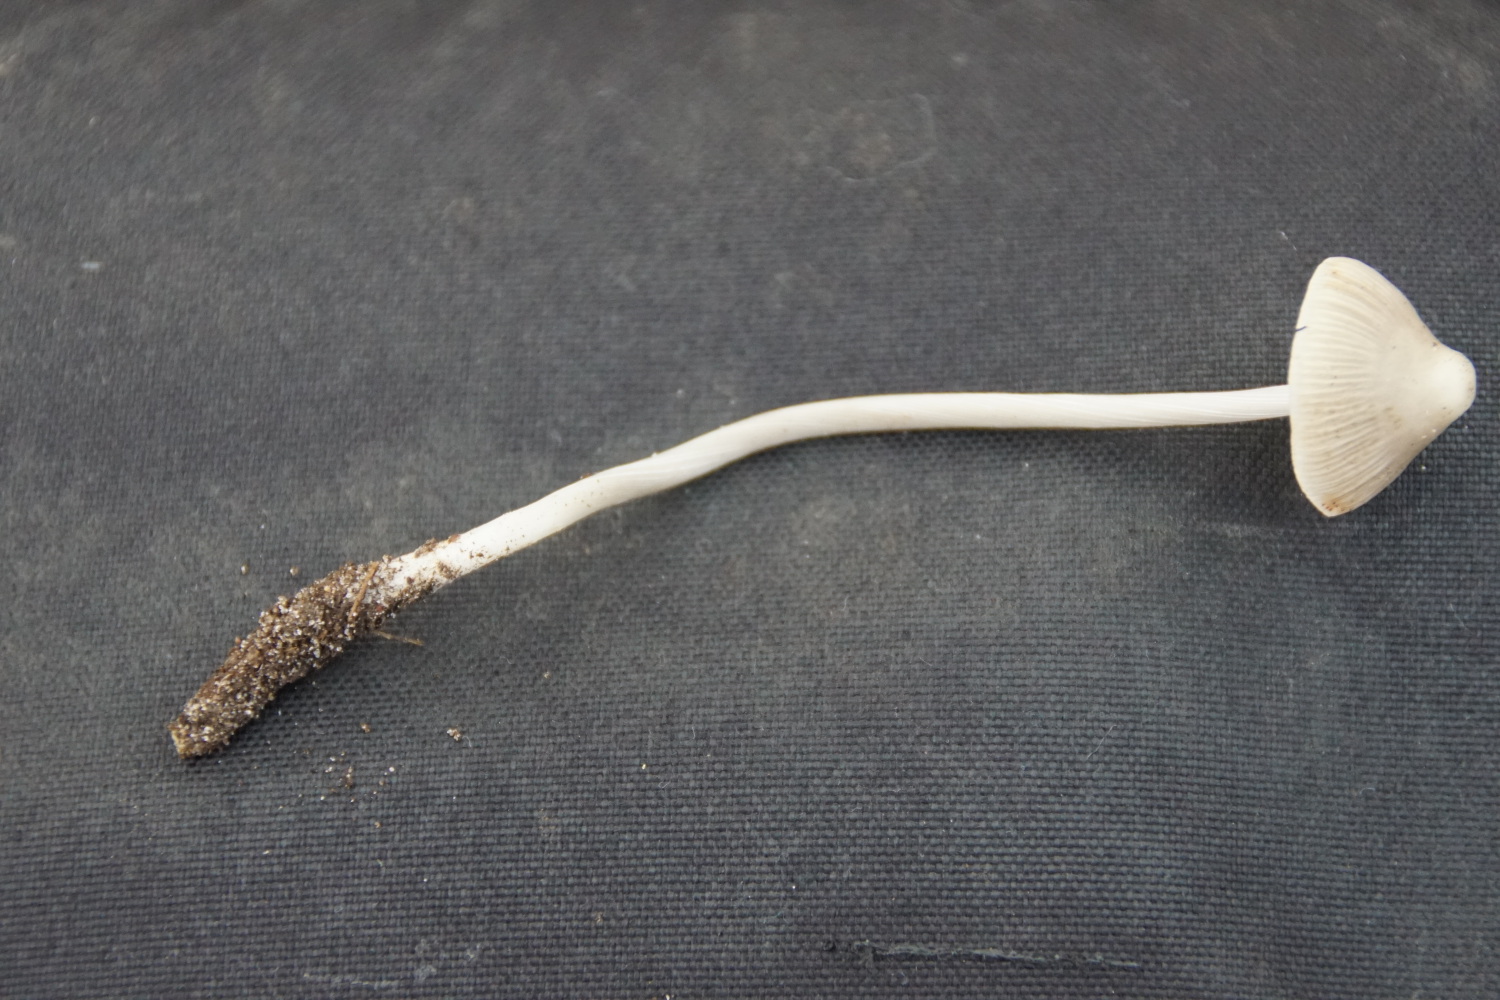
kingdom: Fungi
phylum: Basidiomycota
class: Agaricomycetes
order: Agaricales
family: Mycenaceae
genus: Mycena
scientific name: Mycena polygramma
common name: mangestribet huesvamp
